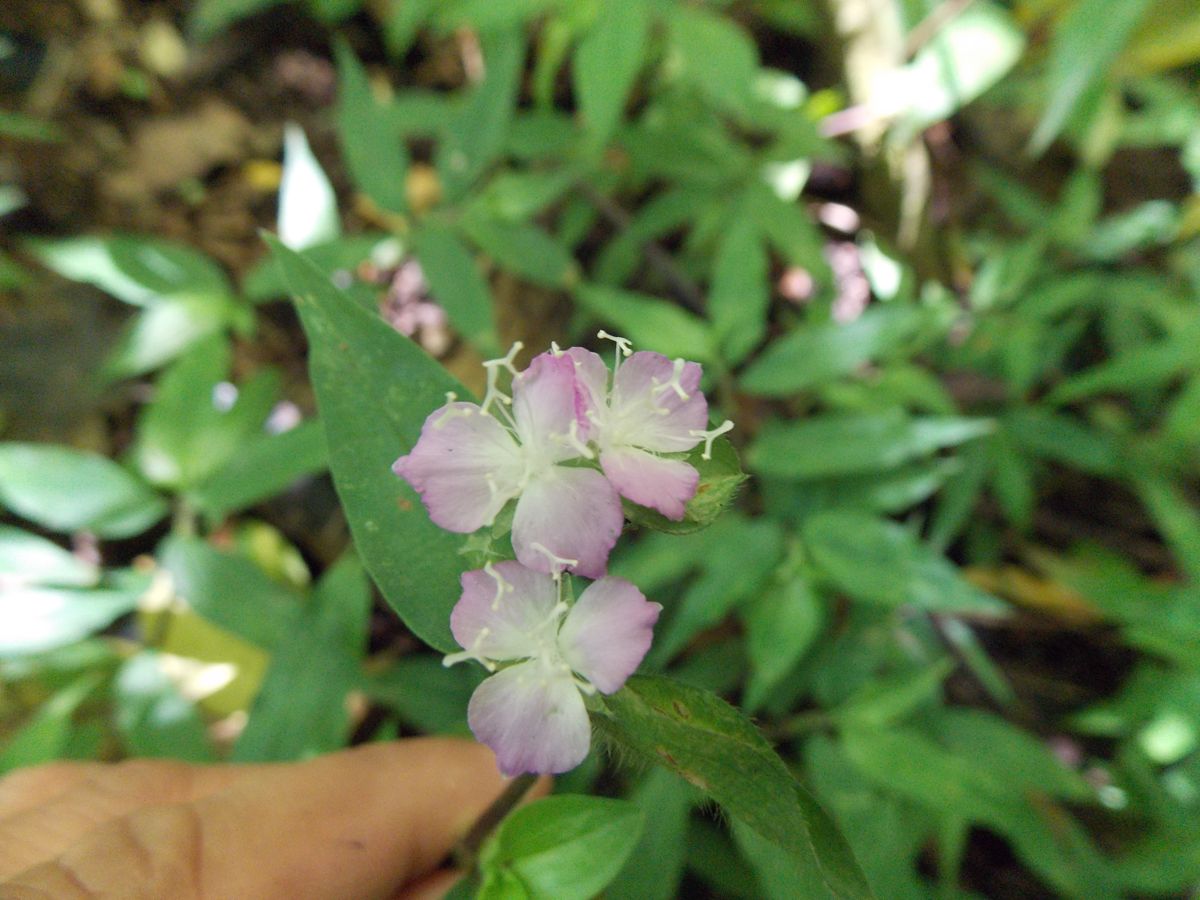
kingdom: Plantae
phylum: Tracheophyta
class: Liliopsida
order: Commelinales
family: Commelinaceae
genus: Commelina
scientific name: Commelina diffusa
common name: Climbing dayflower
